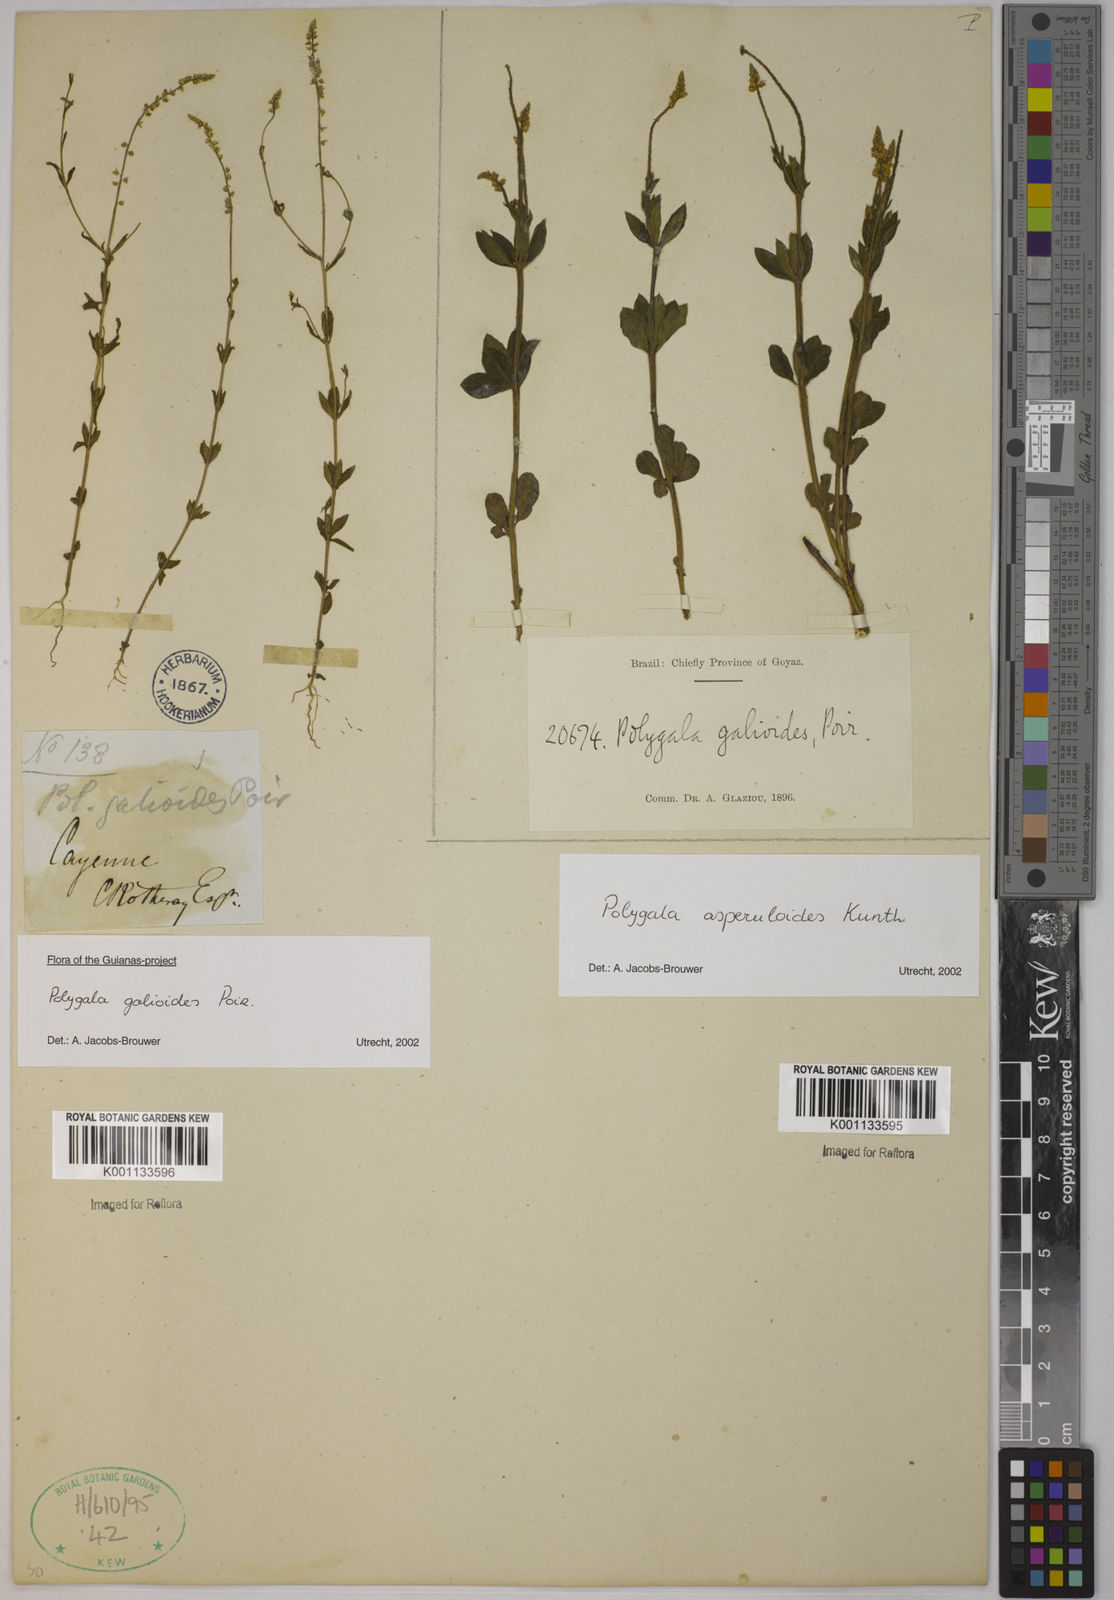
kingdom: Plantae
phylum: Tracheophyta
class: Magnoliopsida
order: Fabales
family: Polygalaceae
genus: Polygala
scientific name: Polygala galioides
